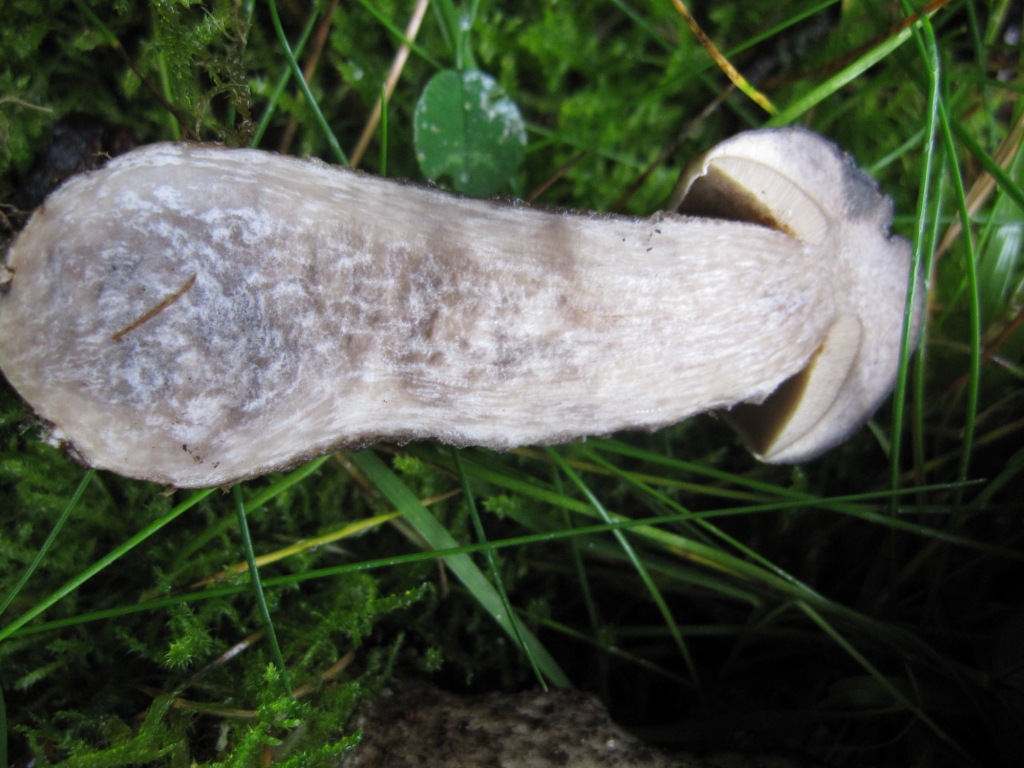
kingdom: Fungi
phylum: Basidiomycota
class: Agaricomycetes
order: Boletales
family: Boletaceae
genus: Leccinellum
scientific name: Leccinellum pseudoscabrum
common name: avnbøg-skælrørhat
